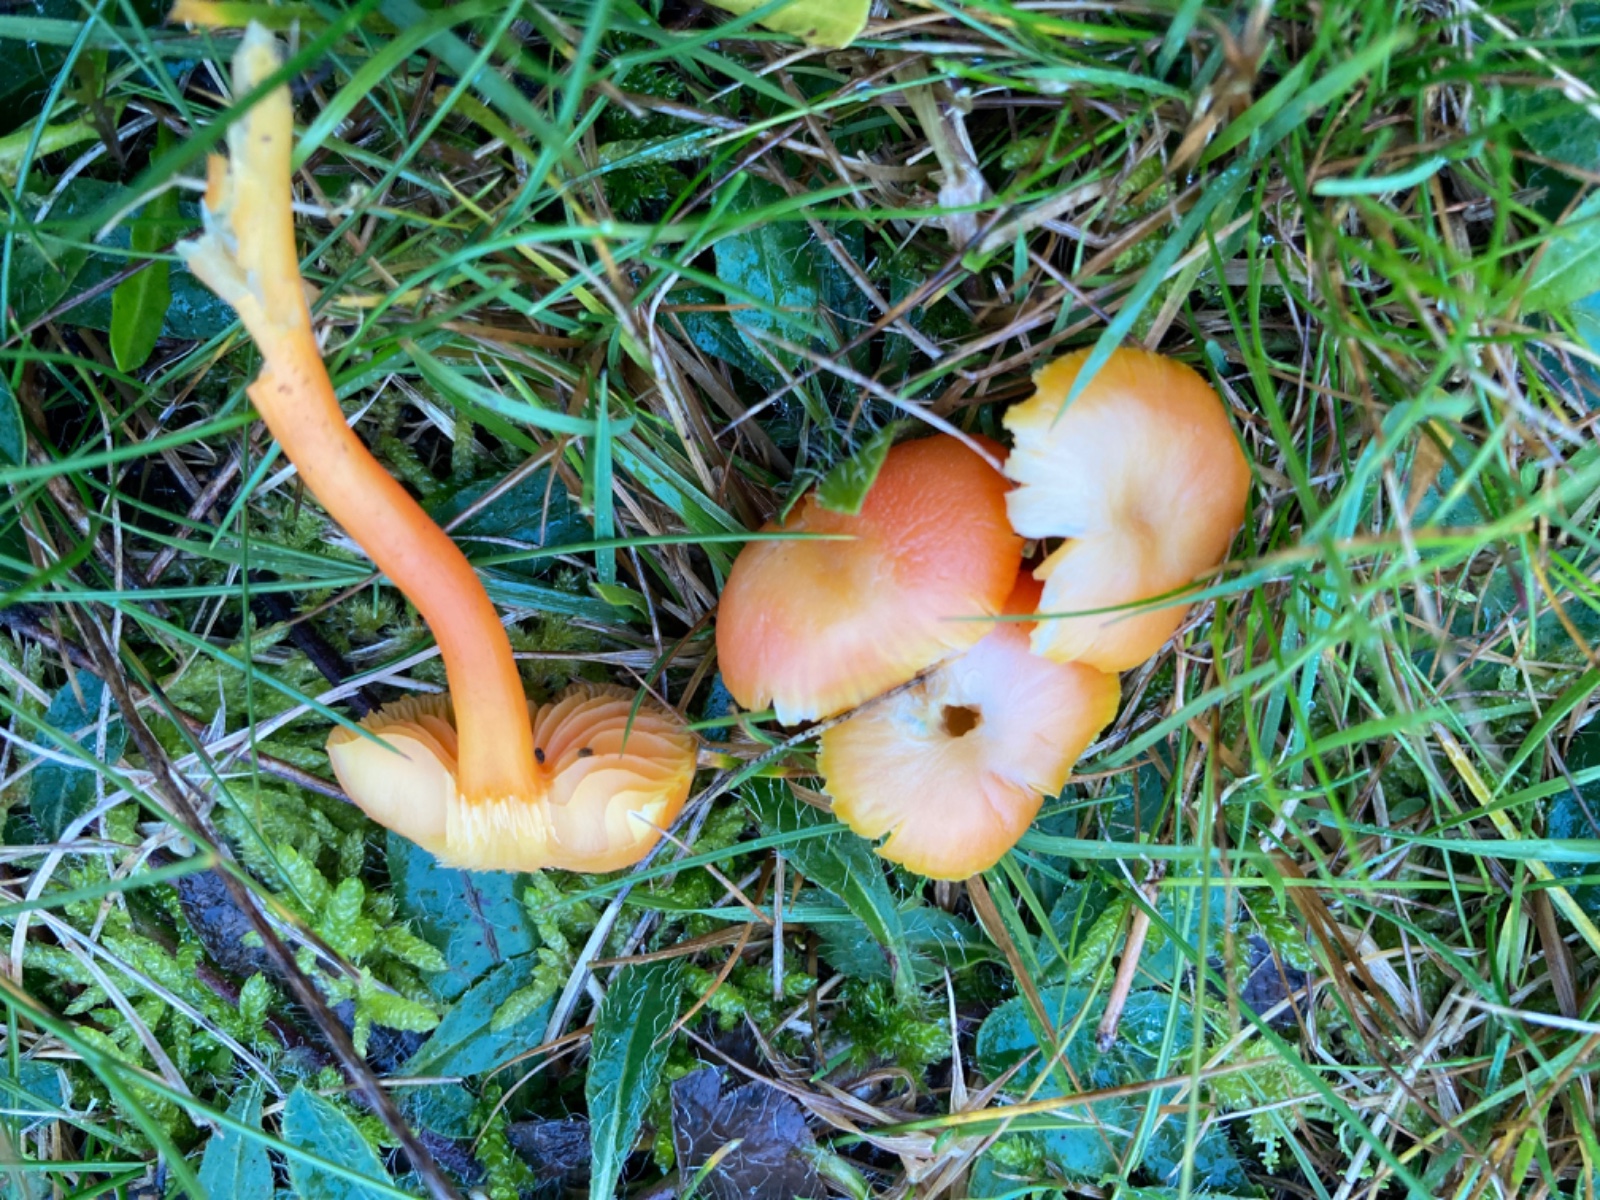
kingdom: Fungi
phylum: Basidiomycota
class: Agaricomycetes
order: Agaricales
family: Hygrophoraceae
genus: Hygrocybe
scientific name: Hygrocybe coccinea
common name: cinnober-vokshat
